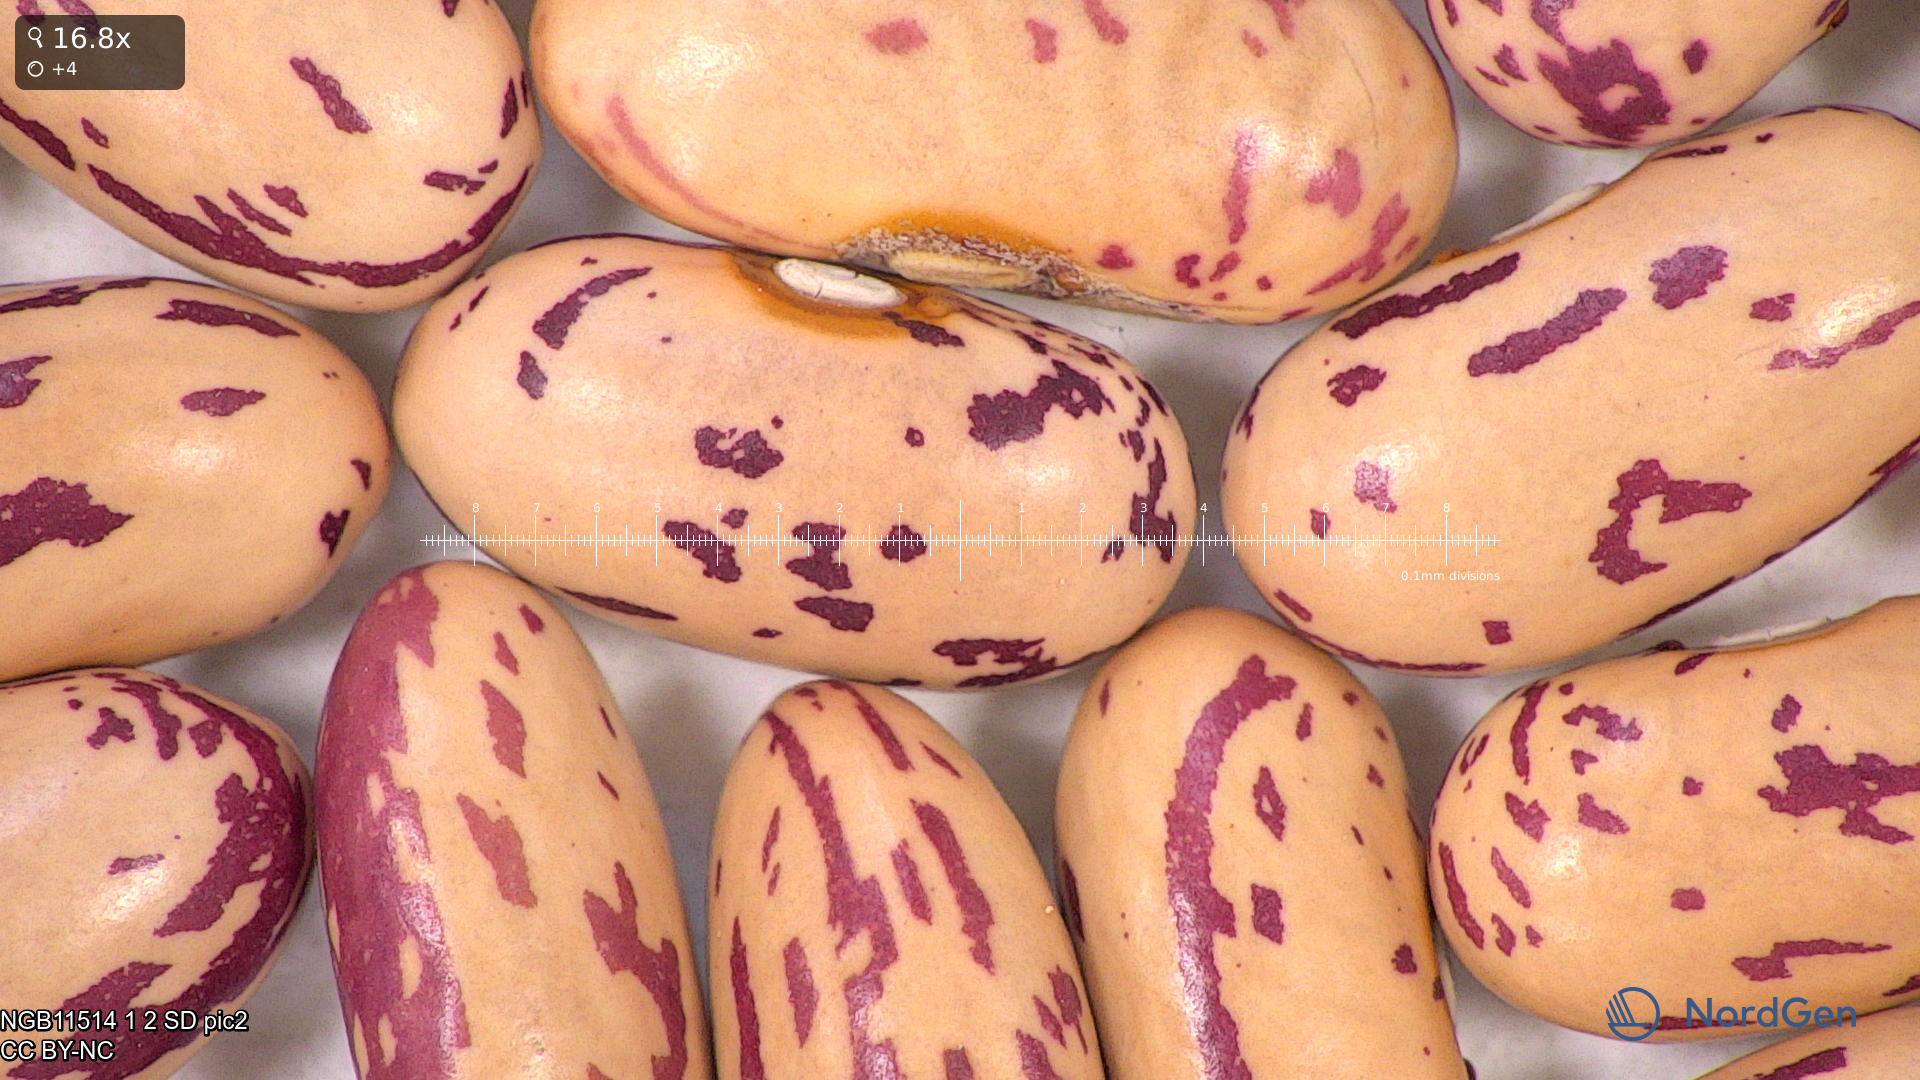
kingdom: Plantae
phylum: Tracheophyta
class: Magnoliopsida
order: Fabales
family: Fabaceae
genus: Phaseolus
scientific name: Phaseolus vulgaris
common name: Bean
